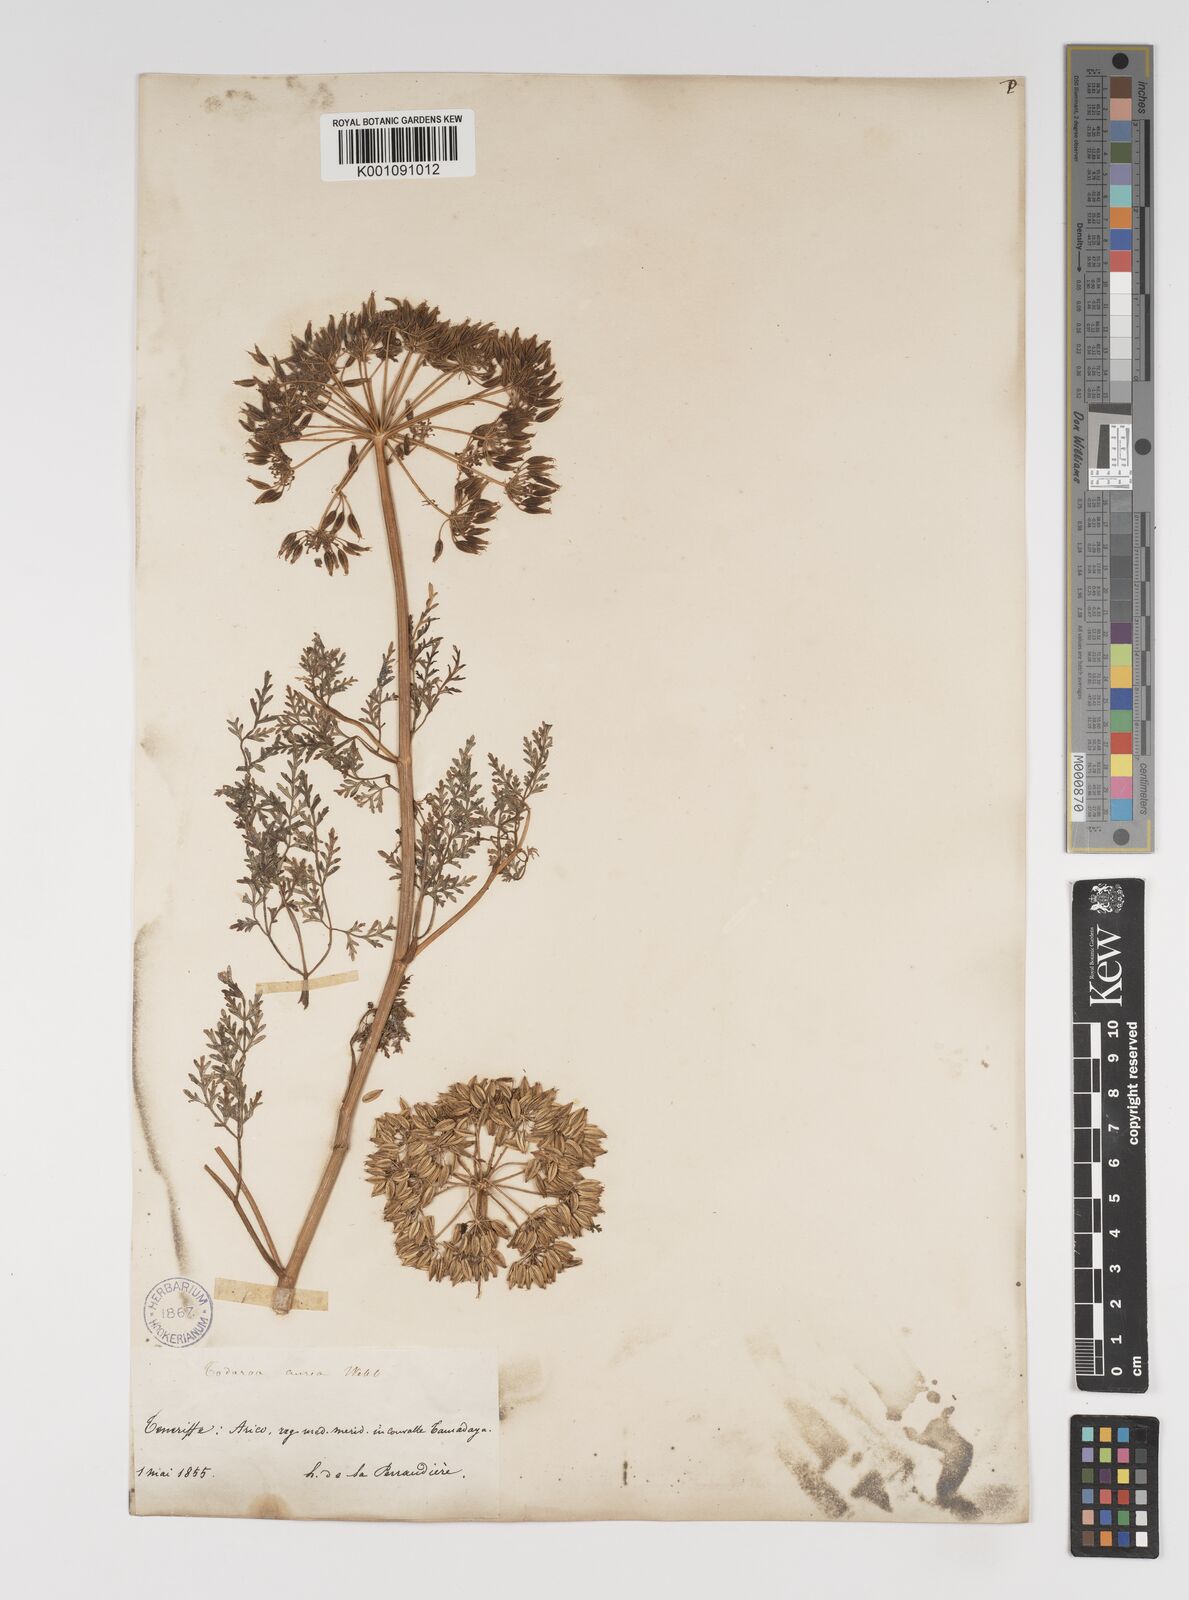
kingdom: Plantae
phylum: Tracheophyta
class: Magnoliopsida
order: Apiales
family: Apiaceae
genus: Todaroa
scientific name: Todaroa aurea
